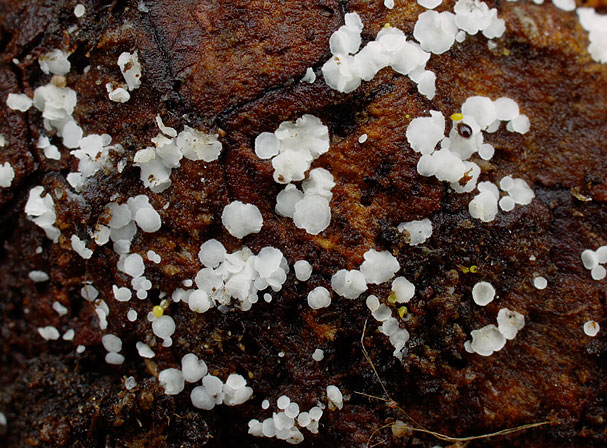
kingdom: Fungi
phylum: Ascomycota
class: Leotiomycetes
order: Helotiales
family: Hyaloscyphaceae
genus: Psilocistella
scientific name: Psilocistella conincola
